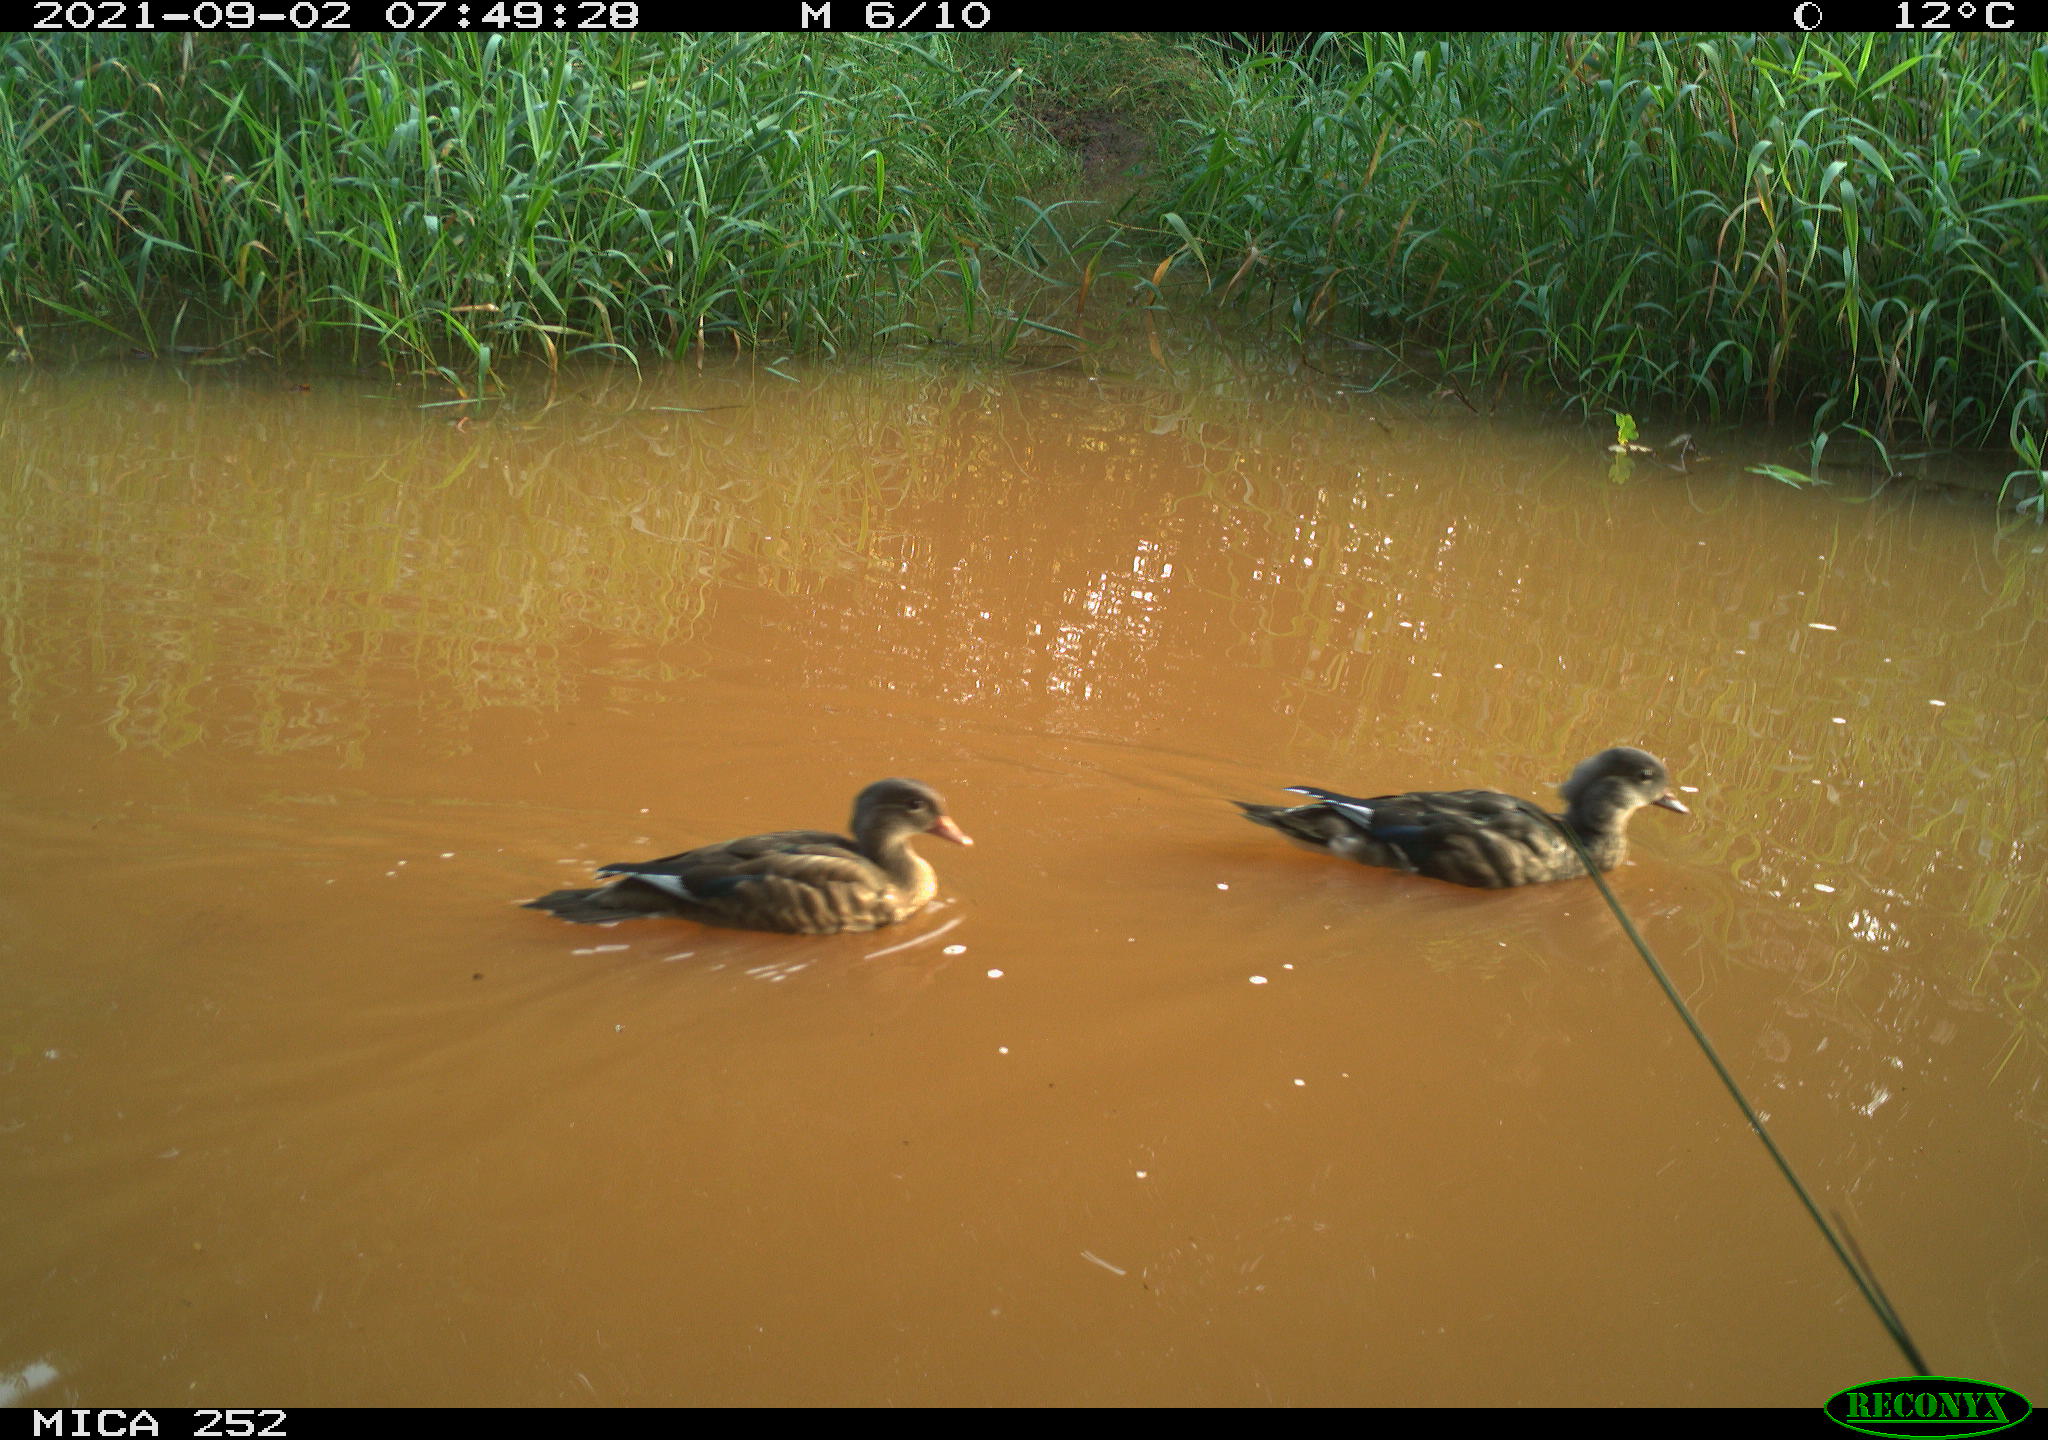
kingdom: Animalia
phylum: Chordata
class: Aves
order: Anseriformes
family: Anatidae
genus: Aix
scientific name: Aix galericulata
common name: Mandarin duck
